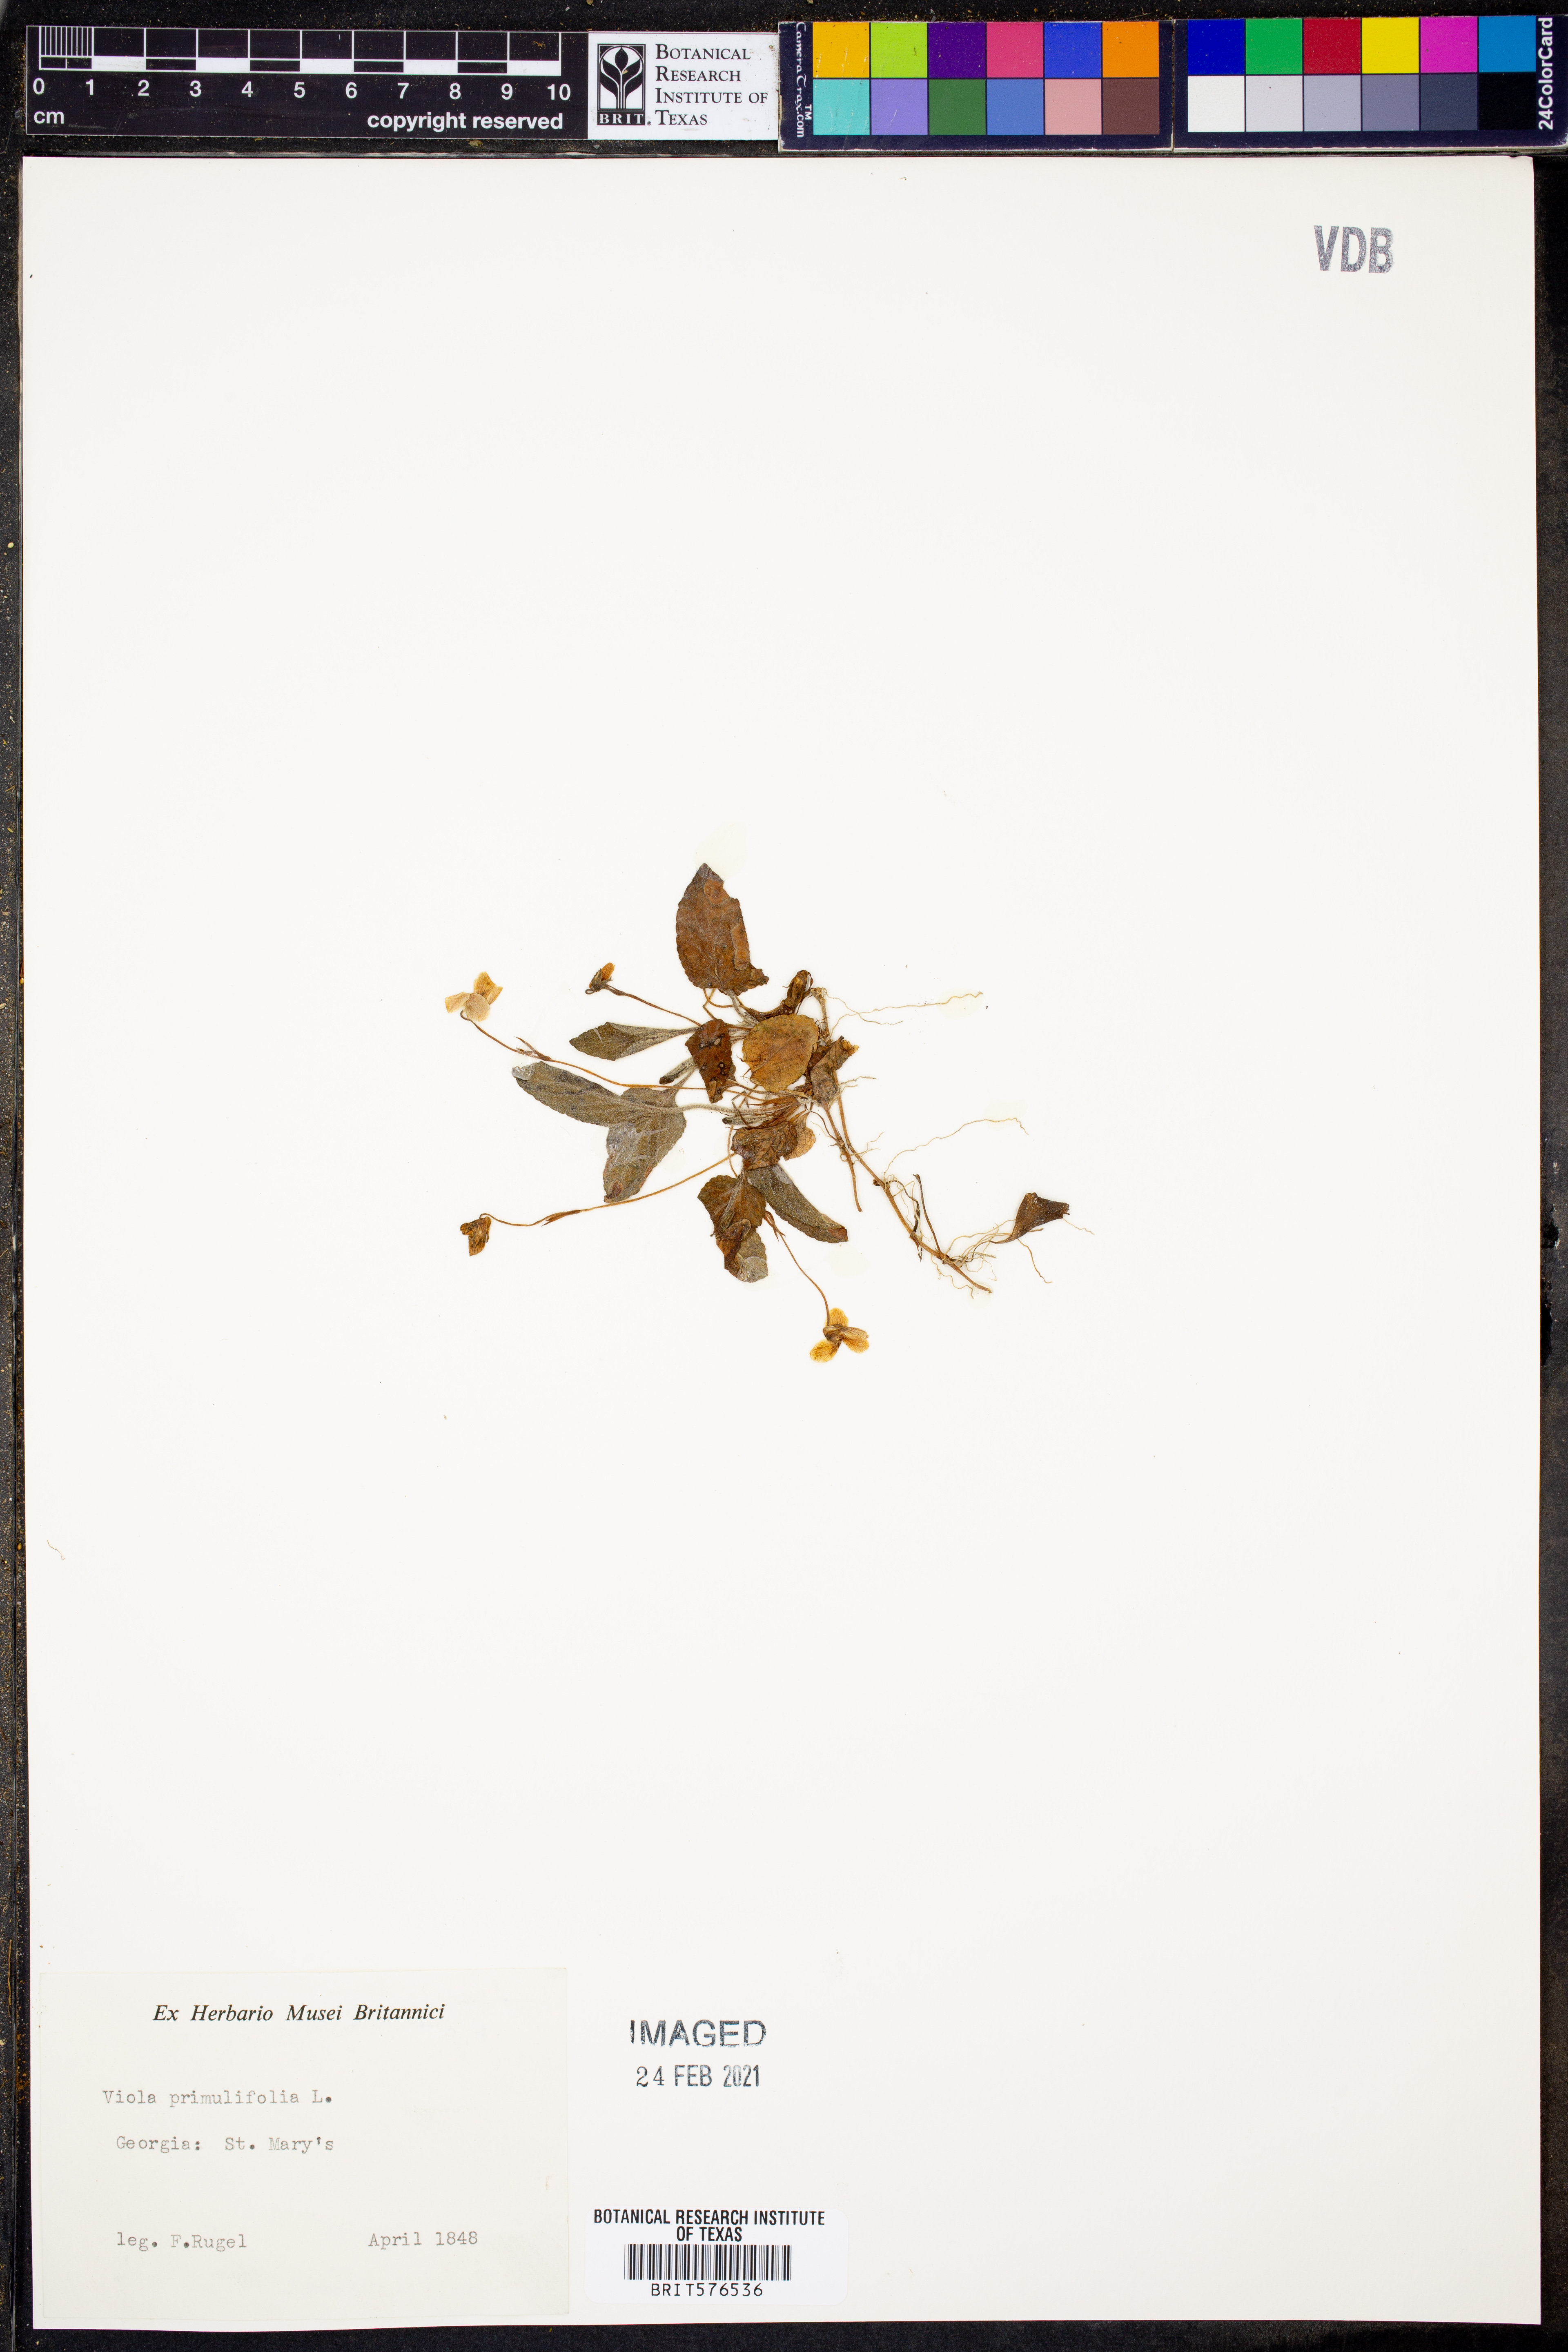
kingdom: Plantae
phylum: Tracheophyta
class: Magnoliopsida
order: Malpighiales
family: Violaceae
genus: Viola
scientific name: Viola primulifolia
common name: Primrose-leaf violet
